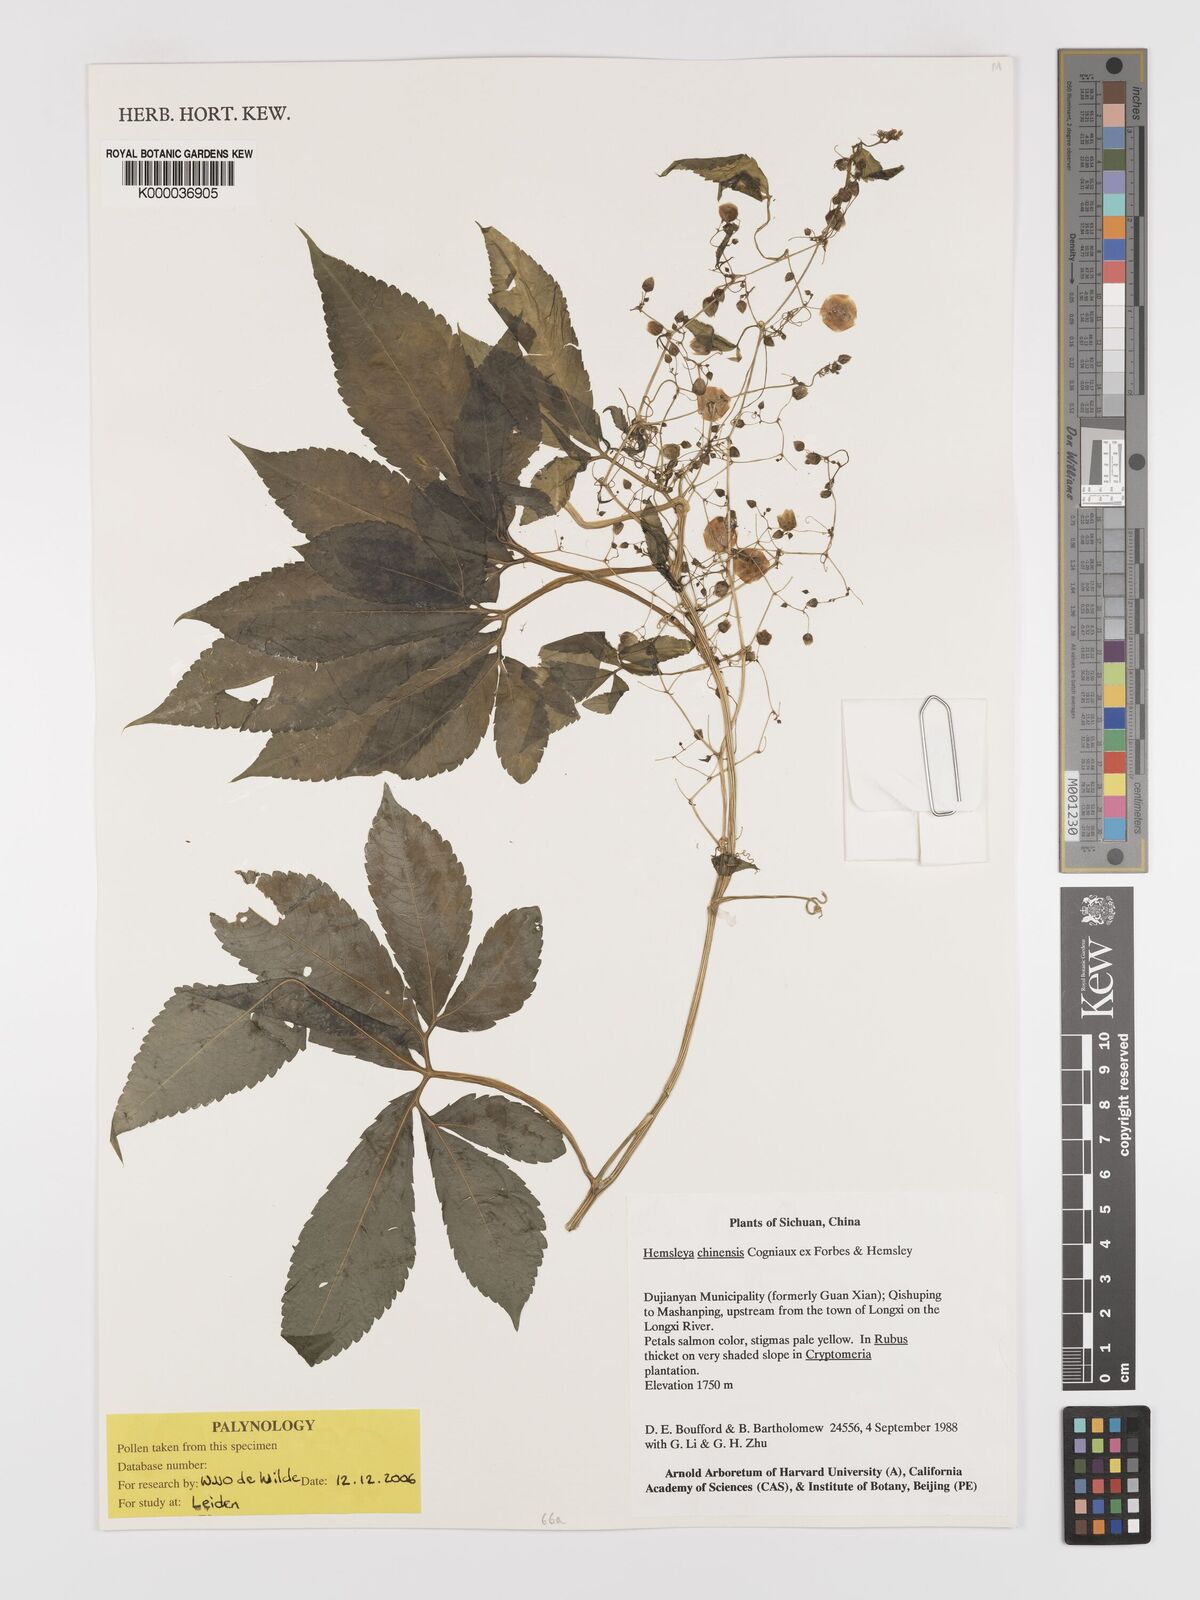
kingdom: Plantae
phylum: Tracheophyta
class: Magnoliopsida
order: Cucurbitales
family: Cucurbitaceae
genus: Hemsleya
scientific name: Hemsleya
